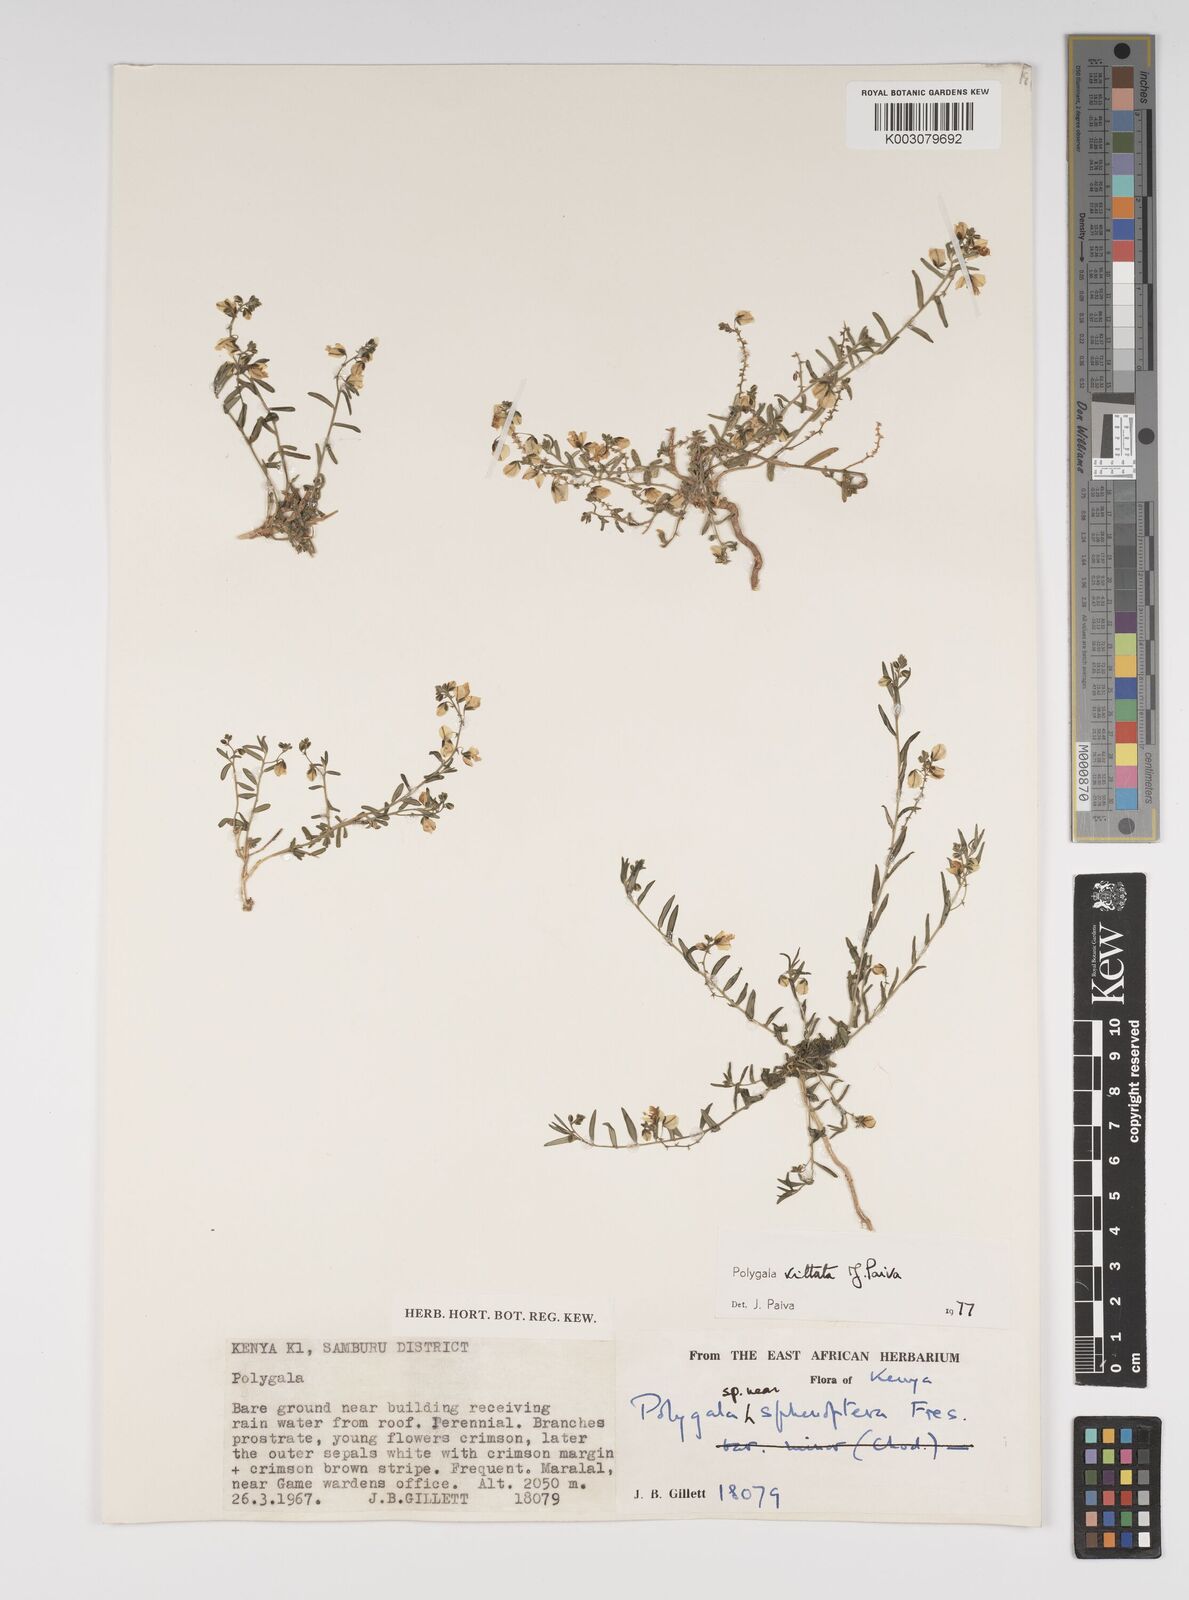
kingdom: Plantae
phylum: Tracheophyta
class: Magnoliopsida
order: Fabales
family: Polygalaceae
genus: Polygala
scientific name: Polygala vittata
